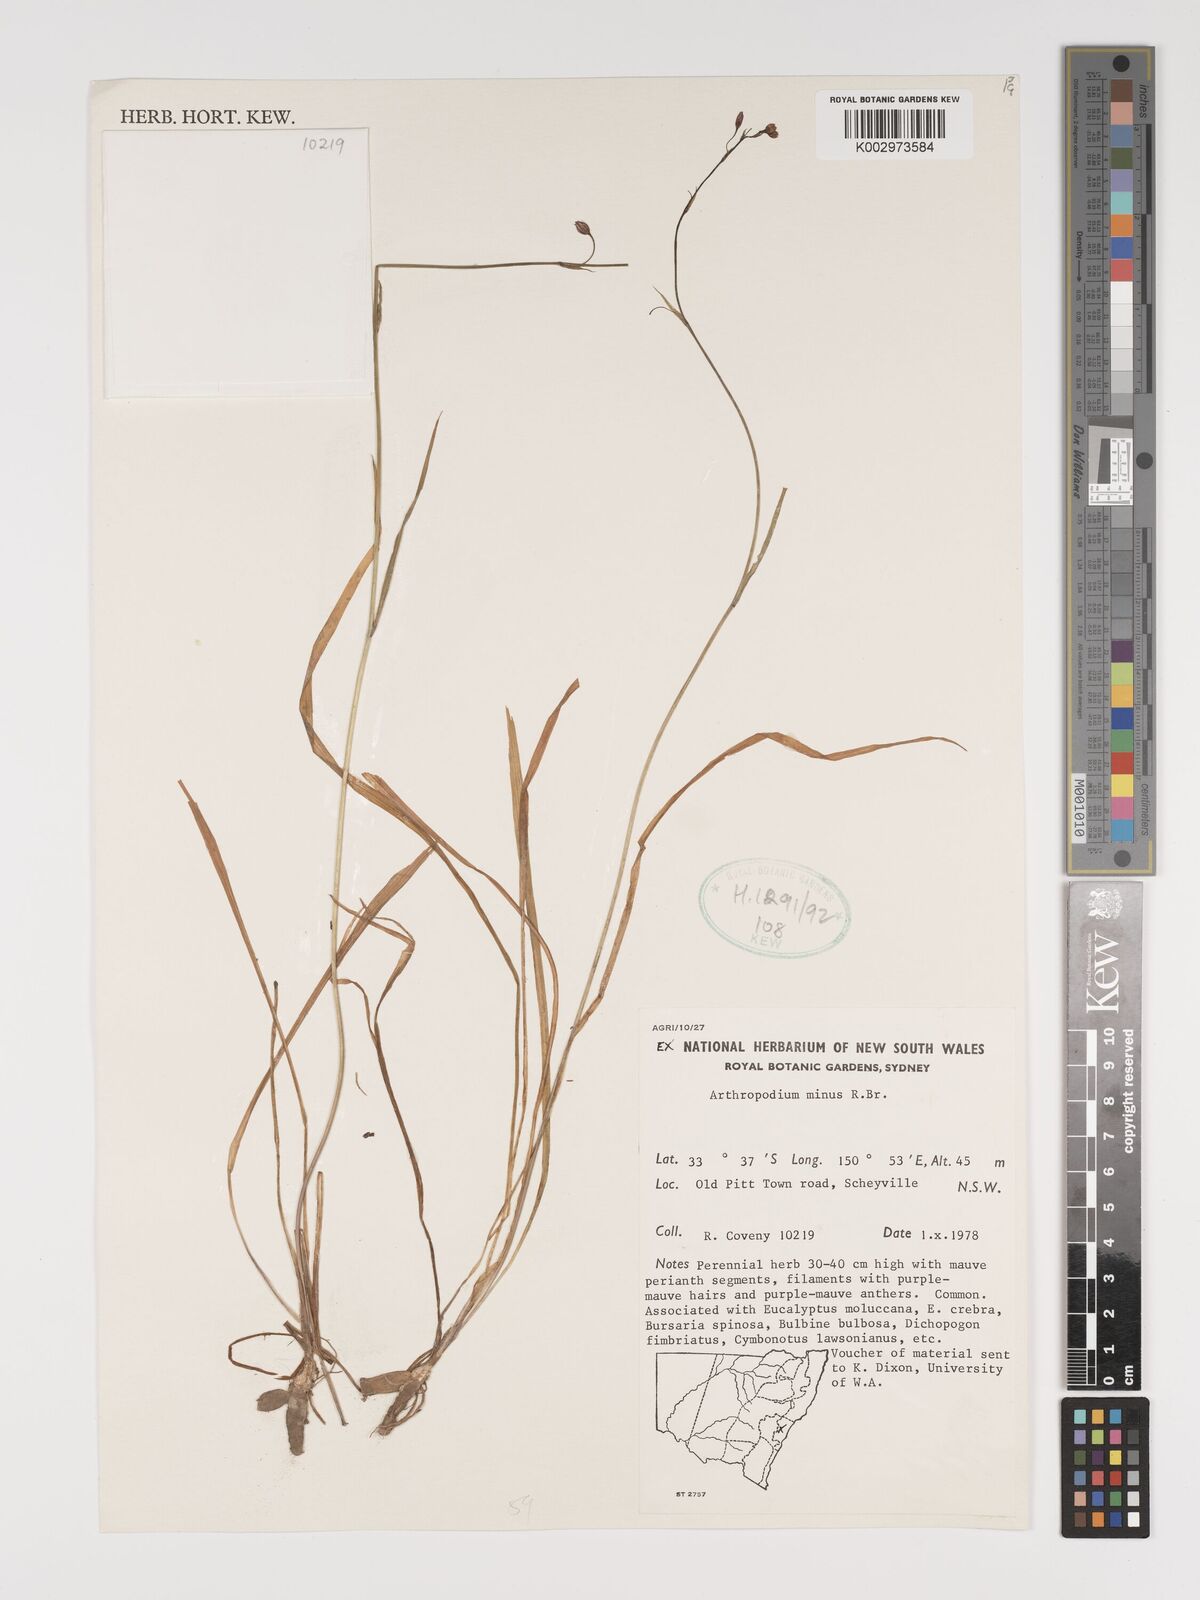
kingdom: Plantae
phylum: Tracheophyta
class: Liliopsida
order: Asparagales
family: Asparagaceae
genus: Arthropodium
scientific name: Arthropodium minus
